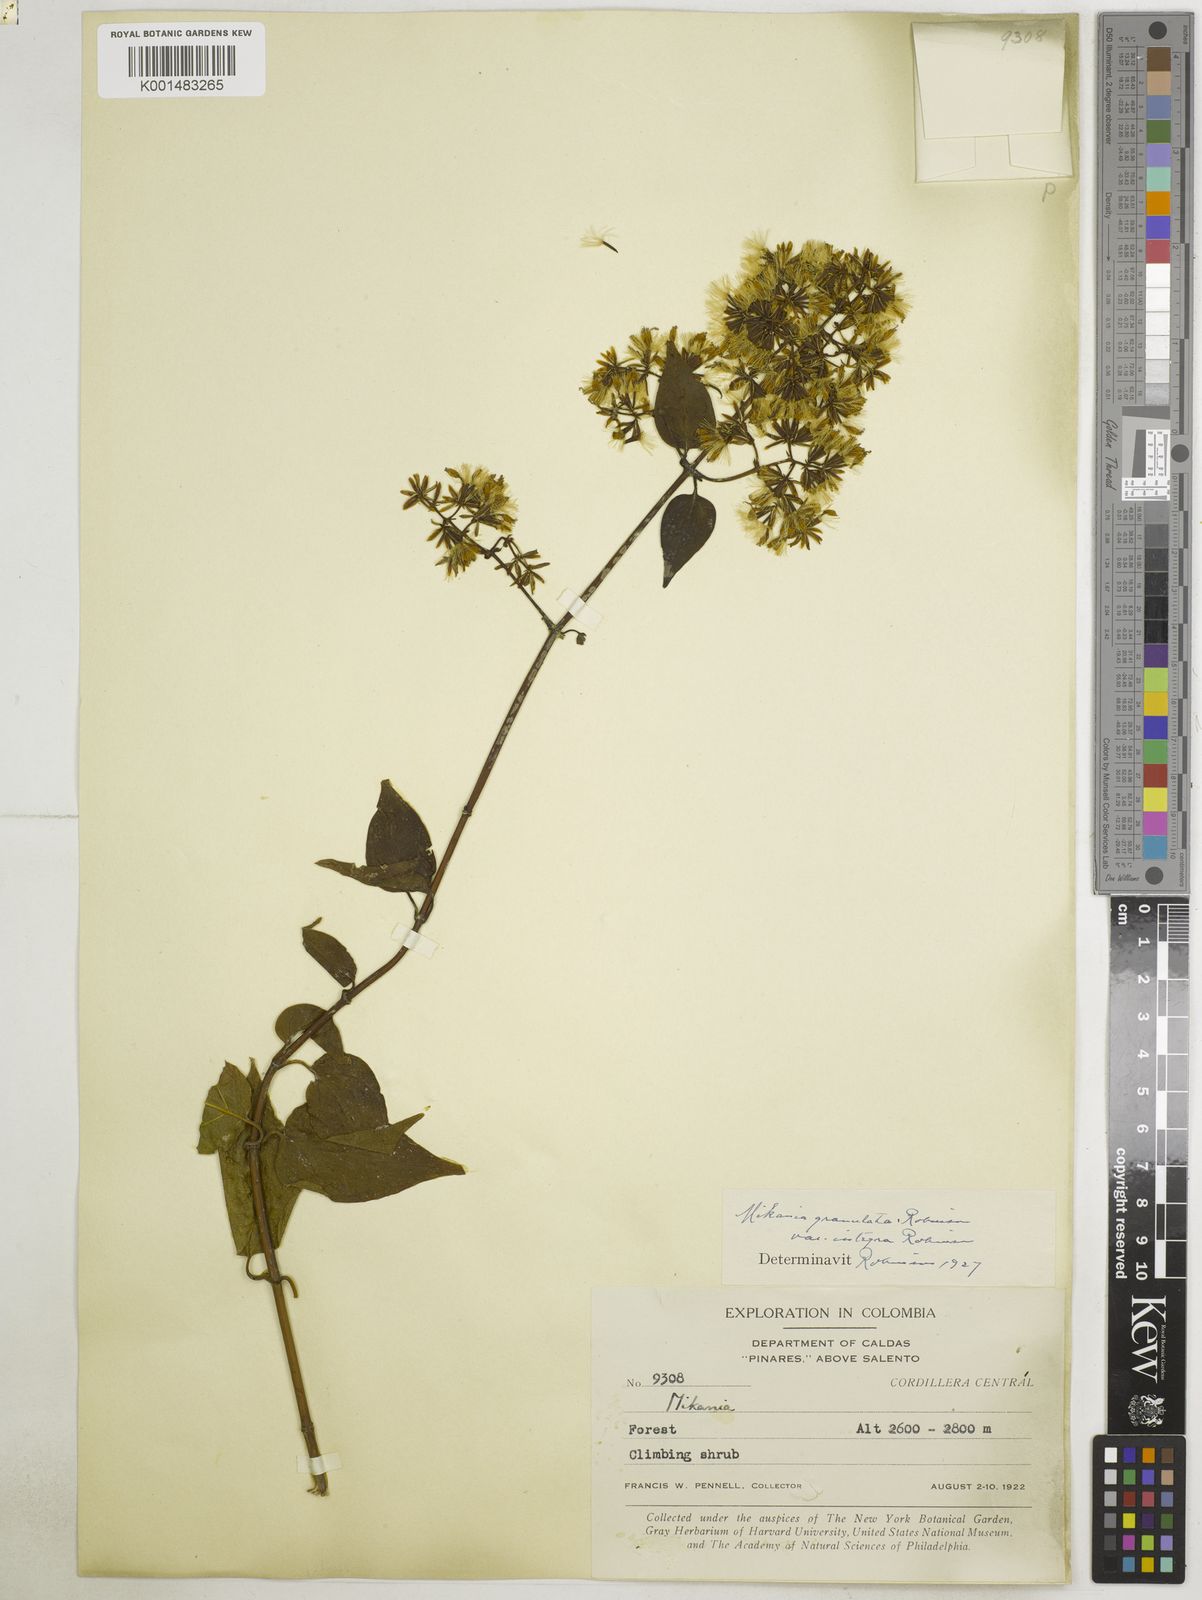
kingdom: Plantae
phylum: Tracheophyta
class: Magnoliopsida
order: Asterales
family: Asteraceae
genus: Mikania
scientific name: Mikania granulata
